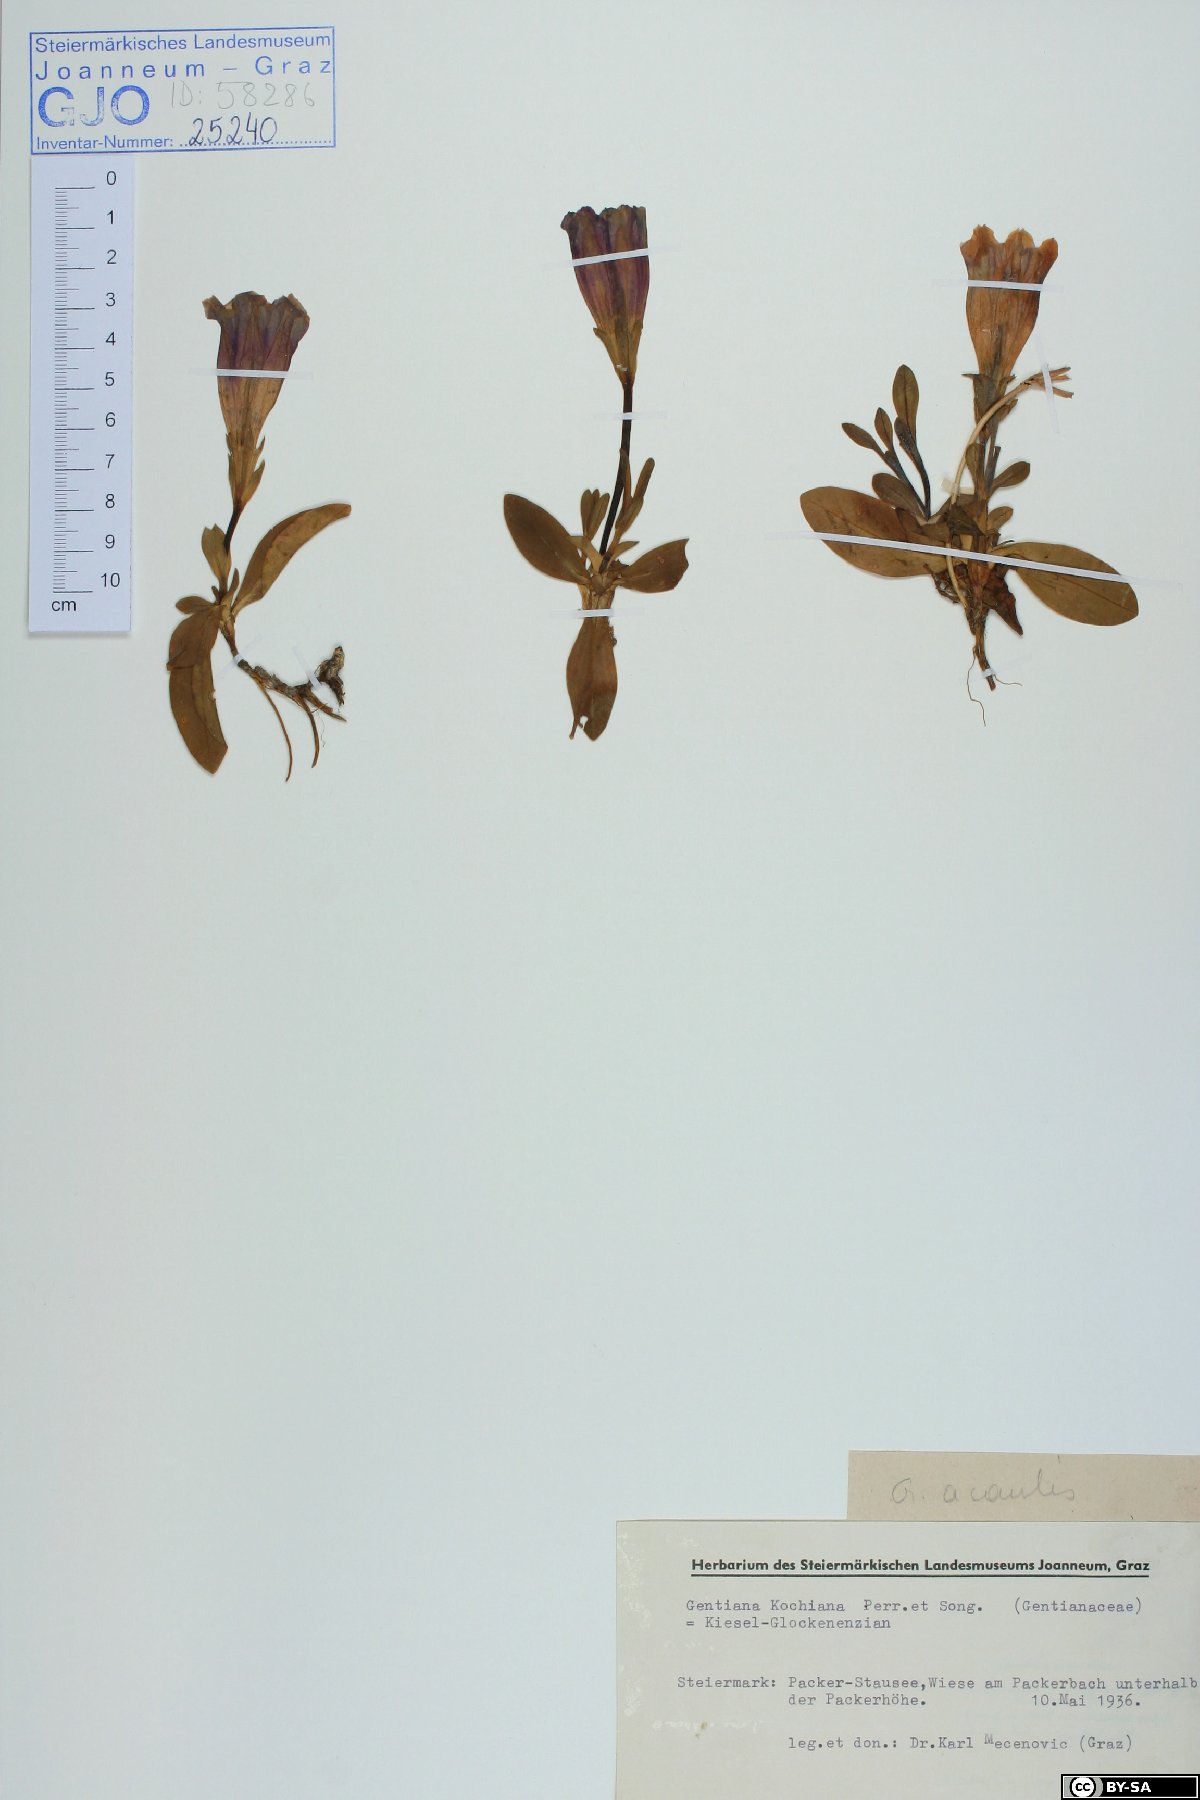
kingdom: Plantae
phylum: Tracheophyta
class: Magnoliopsida
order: Gentianales
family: Gentianaceae
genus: Gentiana
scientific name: Gentiana acaulis
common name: Trumpet gentian
